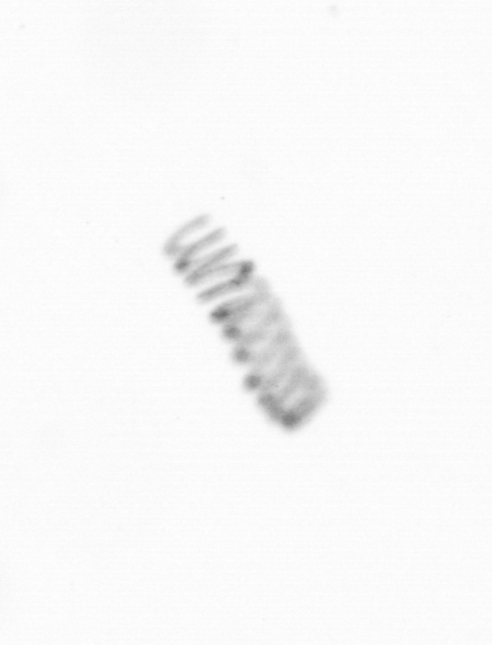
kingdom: Chromista
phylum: Ochrophyta
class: Bacillariophyceae
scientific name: Bacillariophyceae
